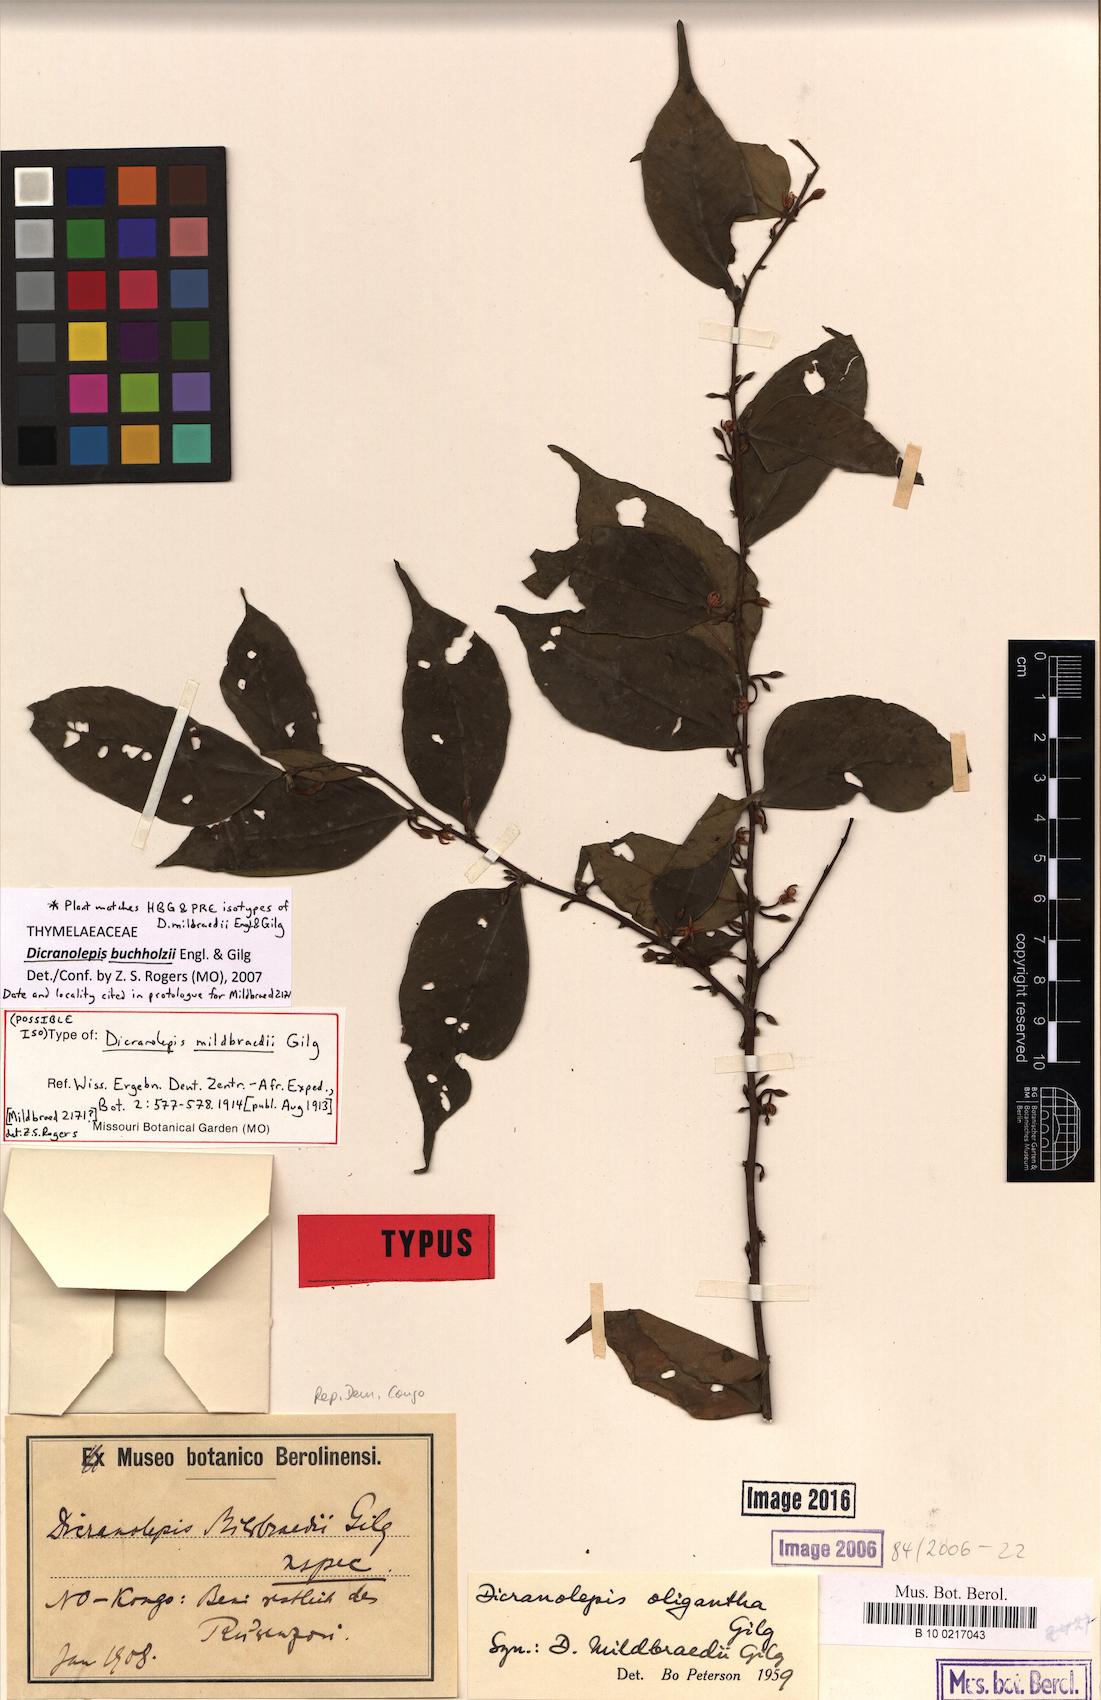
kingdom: Plantae
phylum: Tracheophyta
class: Magnoliopsida
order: Malvales
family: Thymelaeaceae
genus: Dicranolepis
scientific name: Dicranolepis buchholzii
